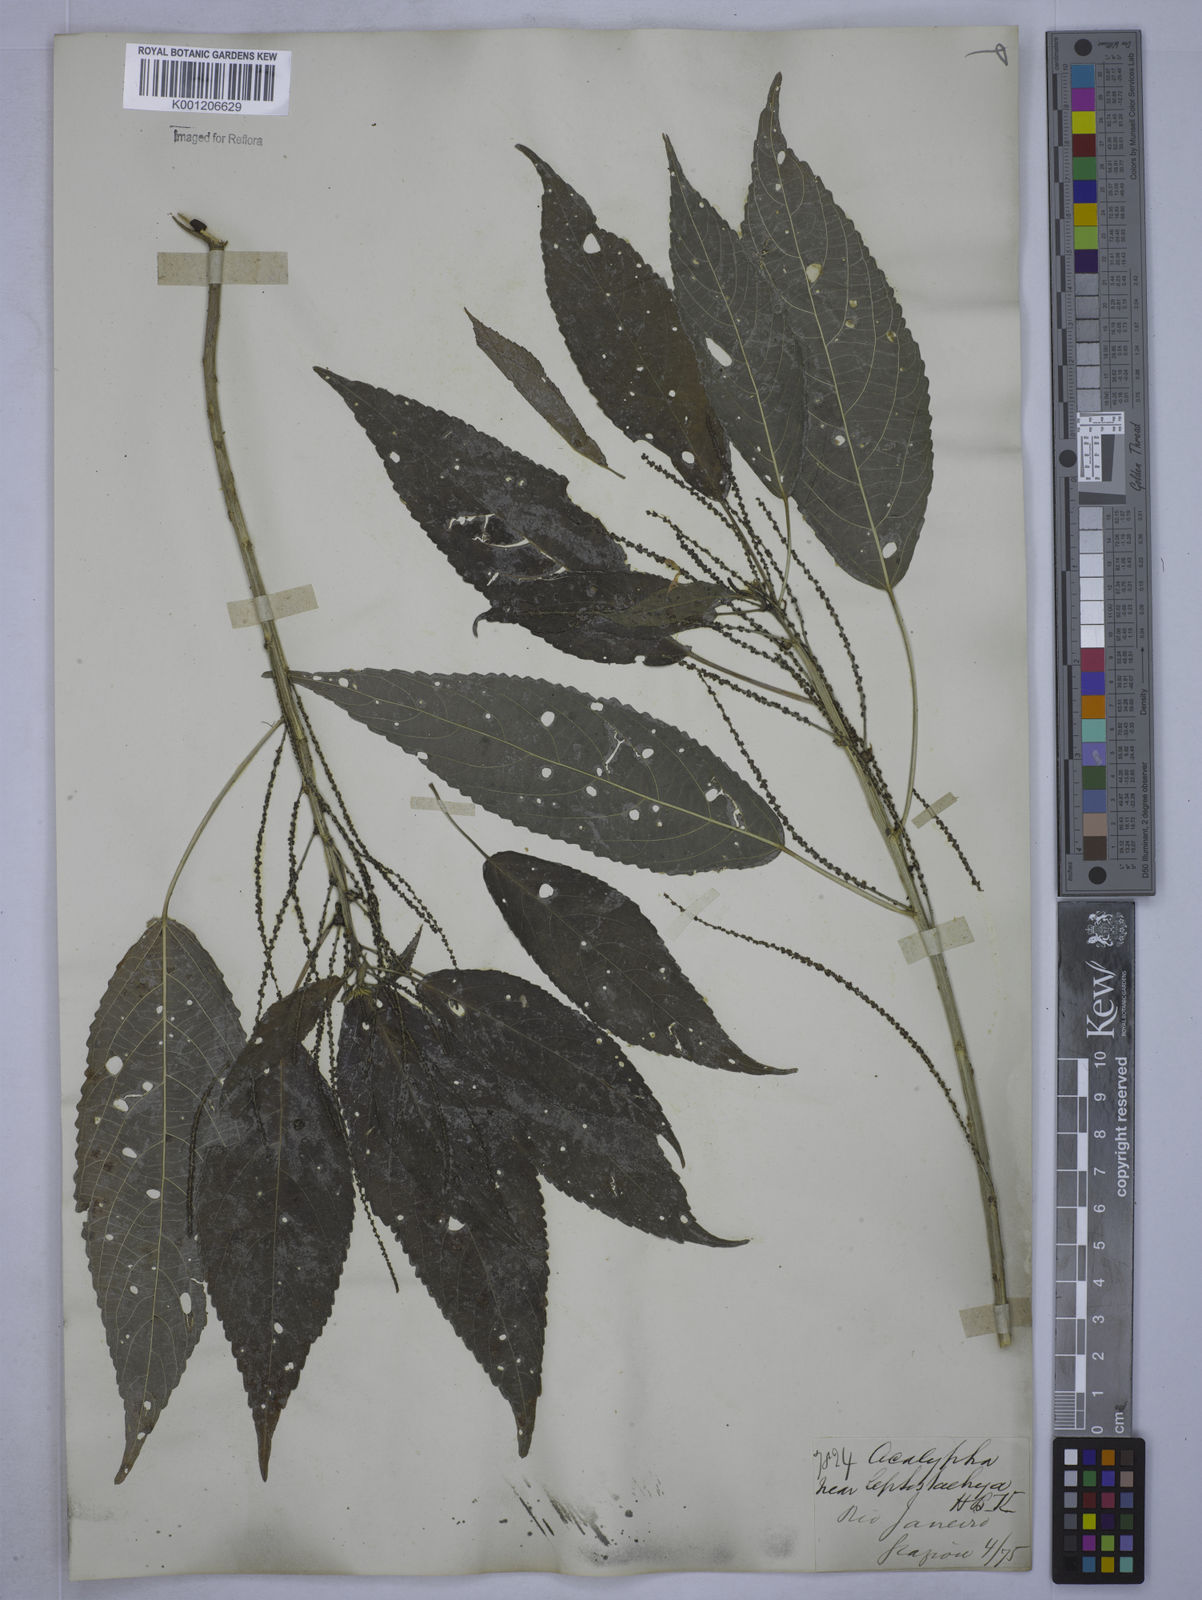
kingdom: Plantae
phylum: Tracheophyta
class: Magnoliopsida
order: Malpighiales
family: Euphorbiaceae
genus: Acalypha
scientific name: Acalypha gracilis
